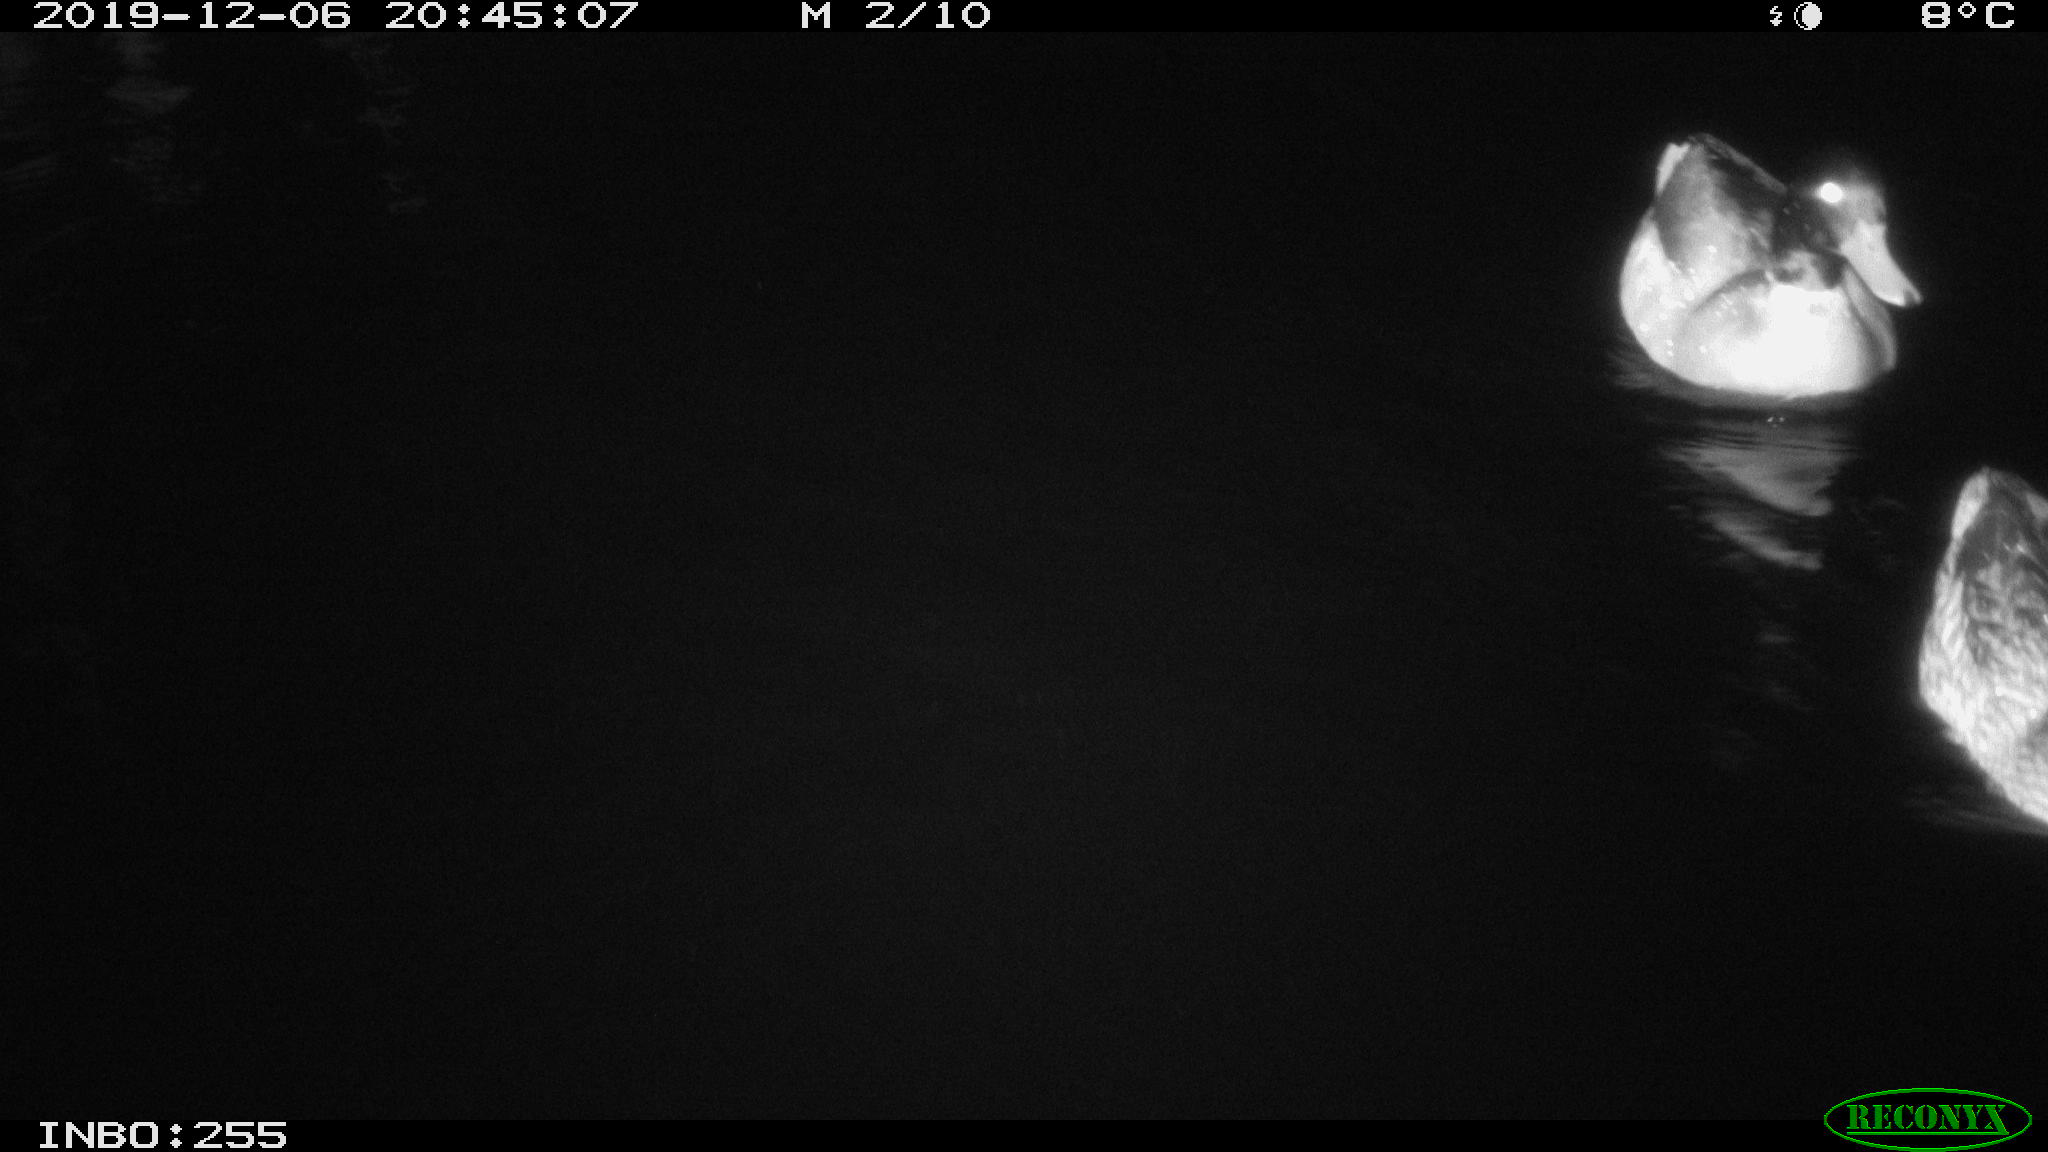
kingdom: Animalia
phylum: Chordata
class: Aves
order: Anseriformes
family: Anatidae
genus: Anas
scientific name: Anas platyrhynchos
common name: Mallard
